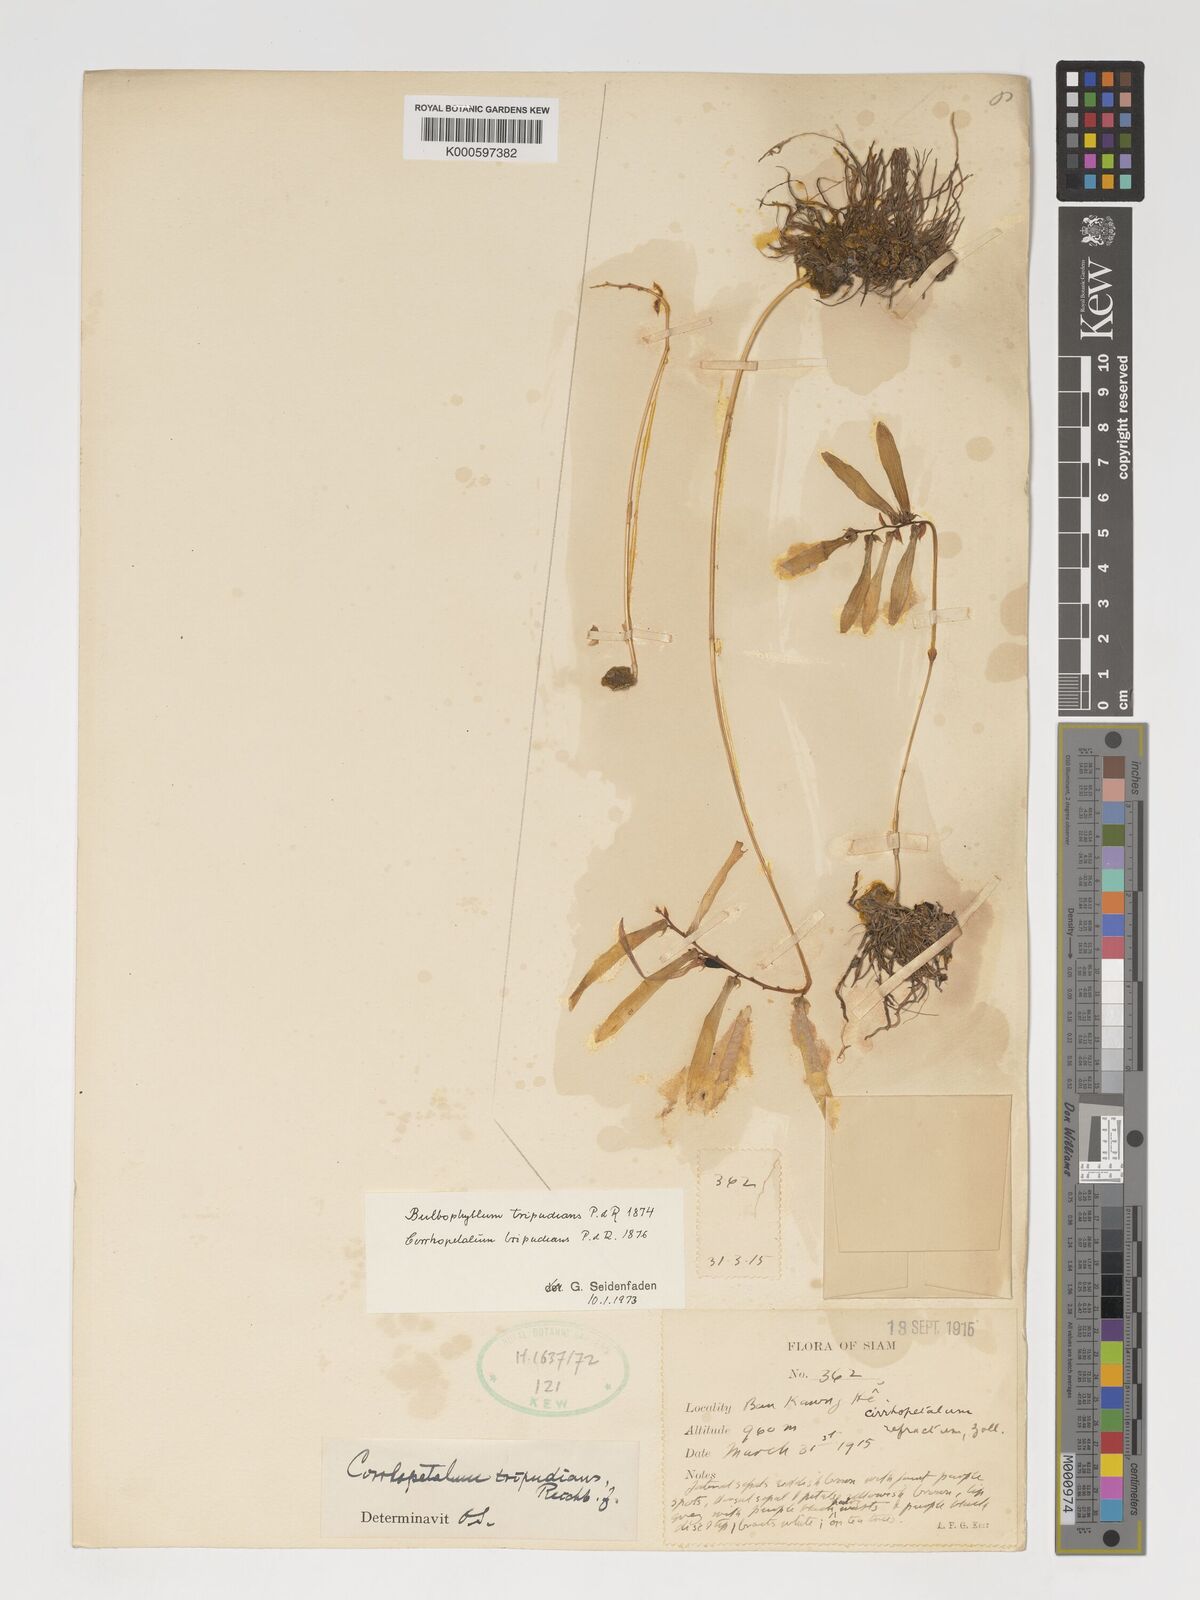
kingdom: Plantae
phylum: Tracheophyta
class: Liliopsida
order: Asparagales
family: Orchidaceae
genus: Bulbophyllum
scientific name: Bulbophyllum tripudians
